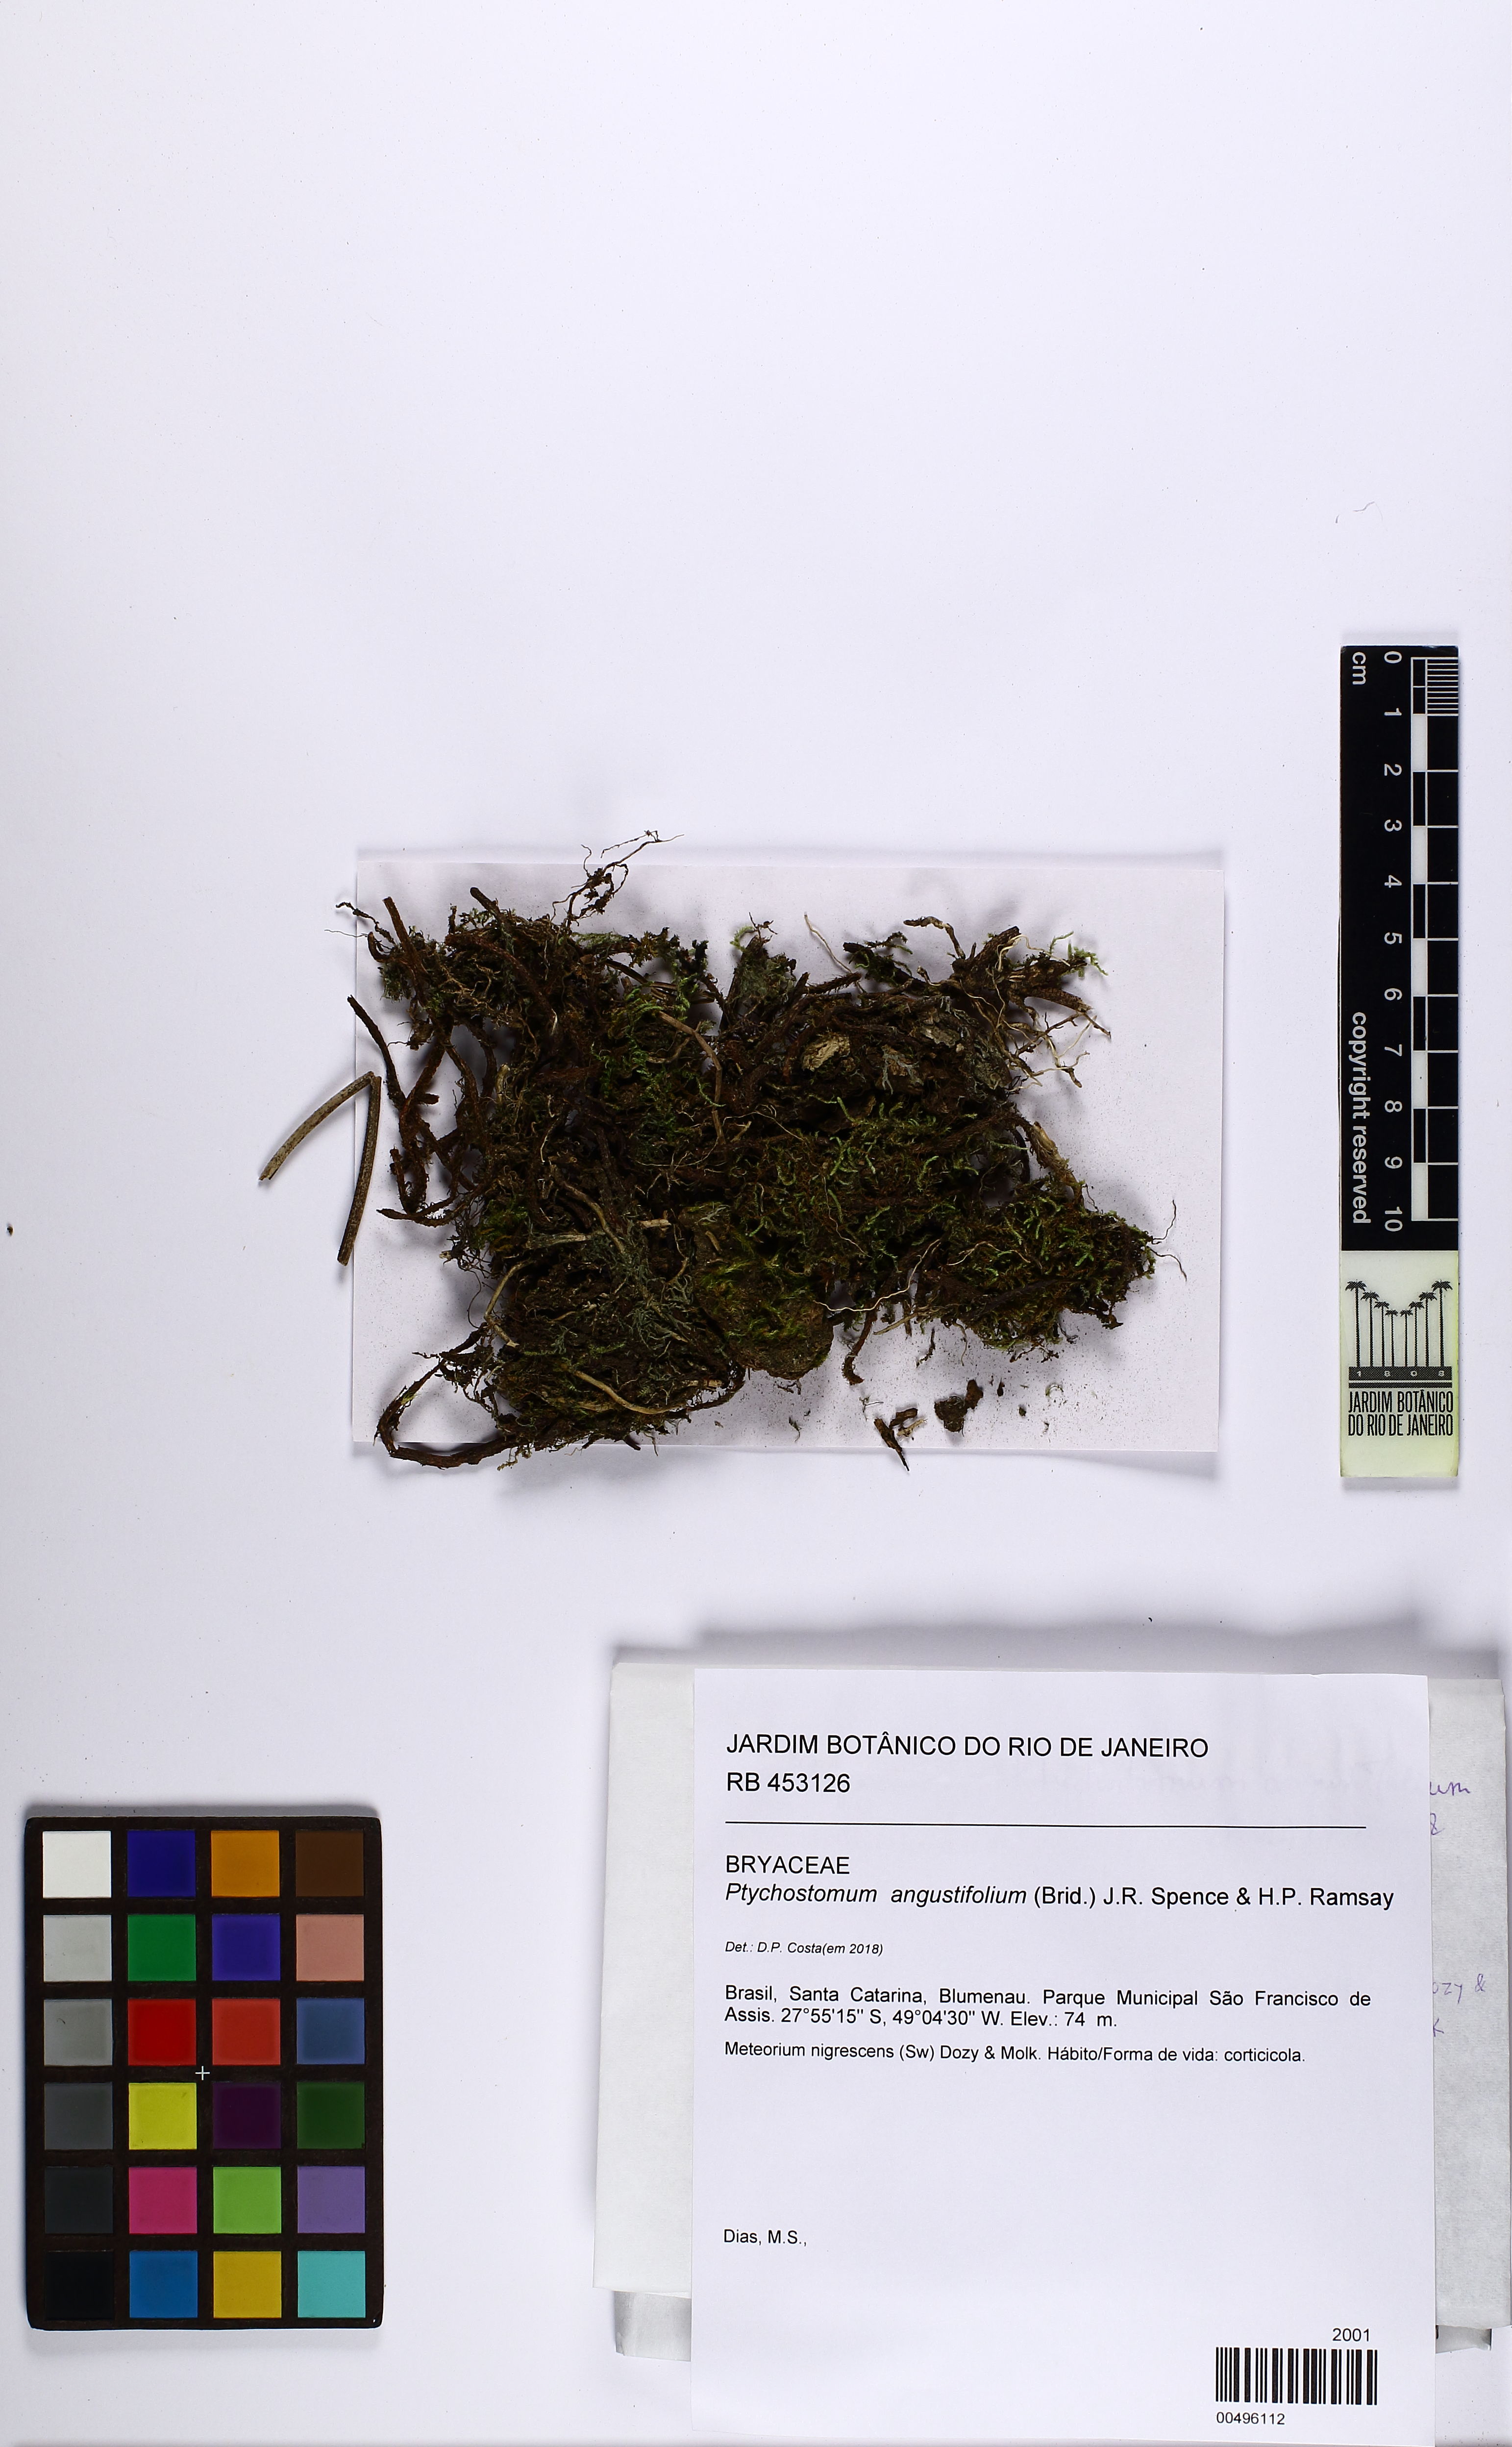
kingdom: Plantae
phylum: Bryophyta
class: Bryopsida
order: Bryales
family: Bryaceae
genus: Gemmabryum
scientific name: Gemmabryum caespiticium
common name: Handbell moss
